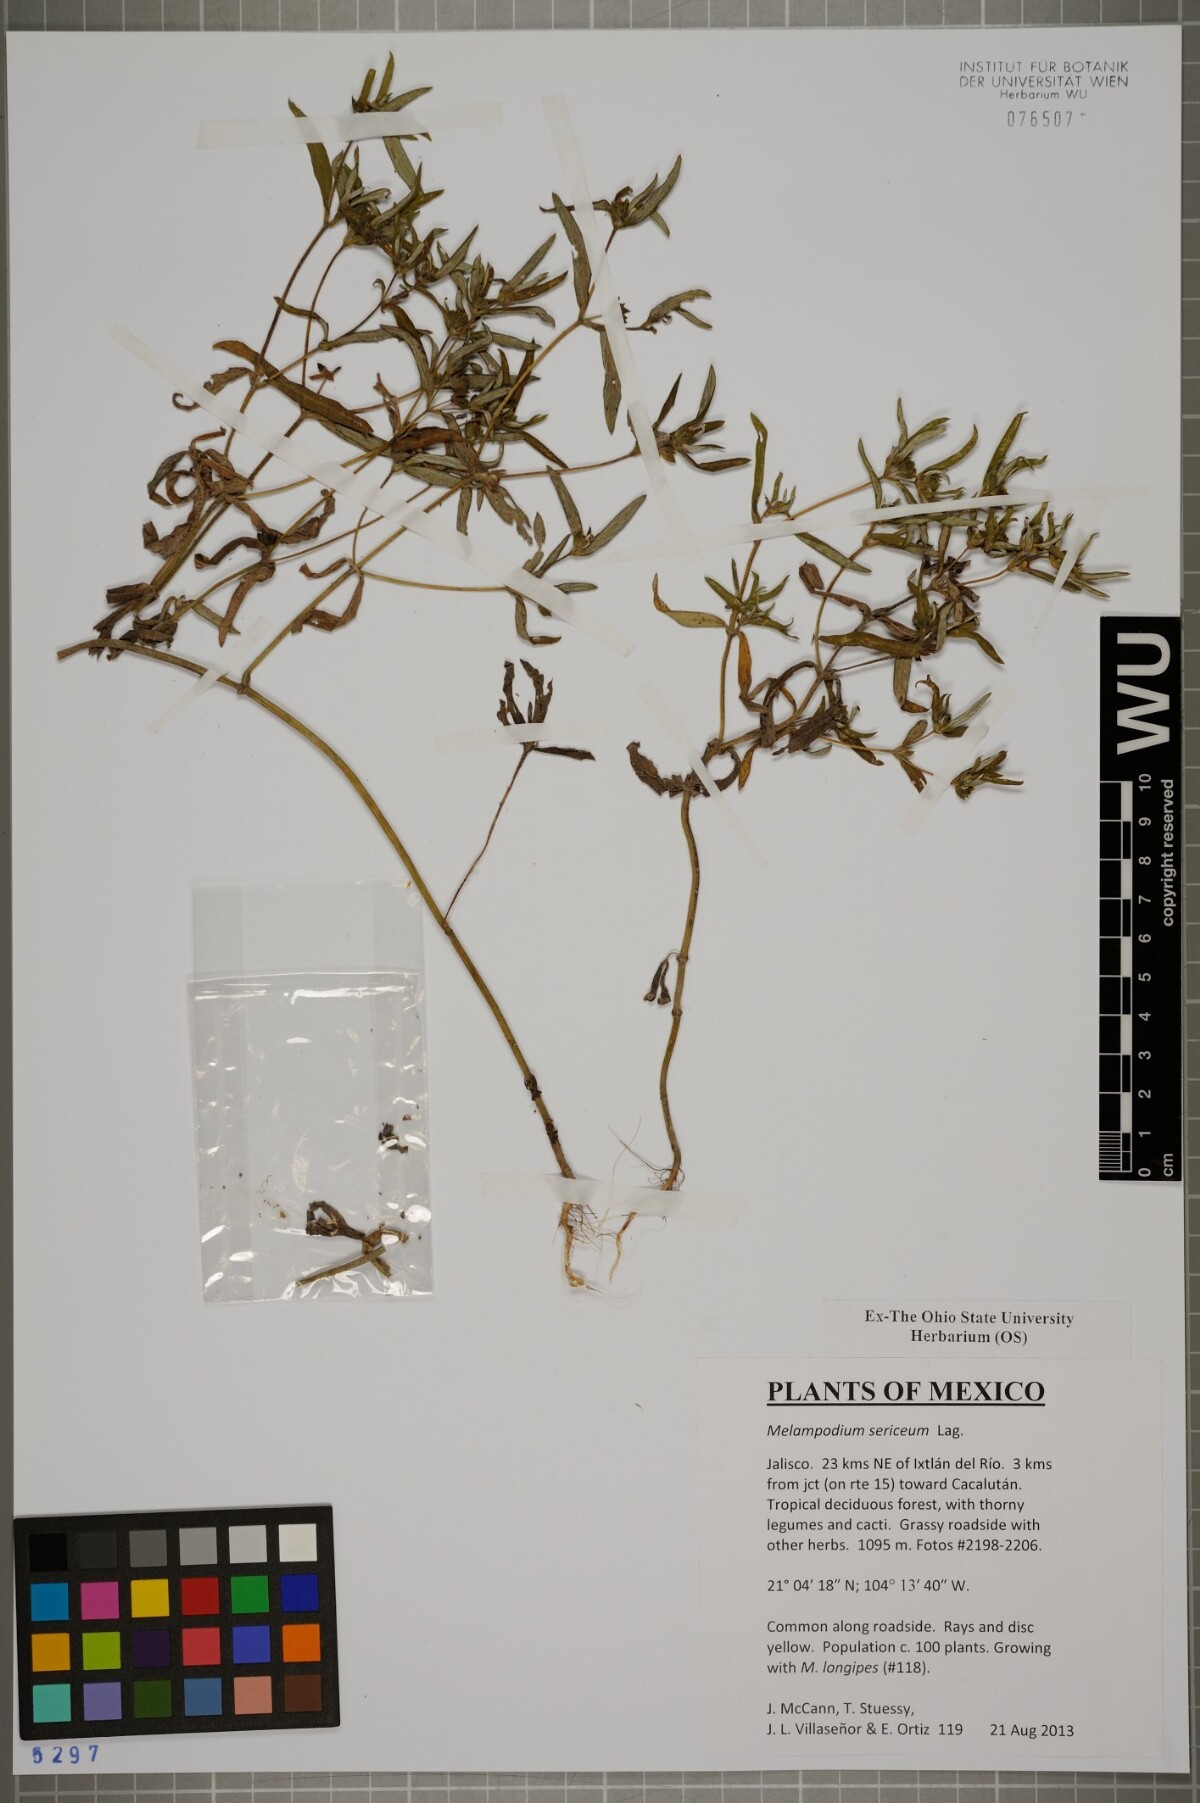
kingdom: Plantae
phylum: Tracheophyta
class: Magnoliopsida
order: Asterales
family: Asteraceae
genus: Melampodium
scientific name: Melampodium sericeum
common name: Rough blackfoot
